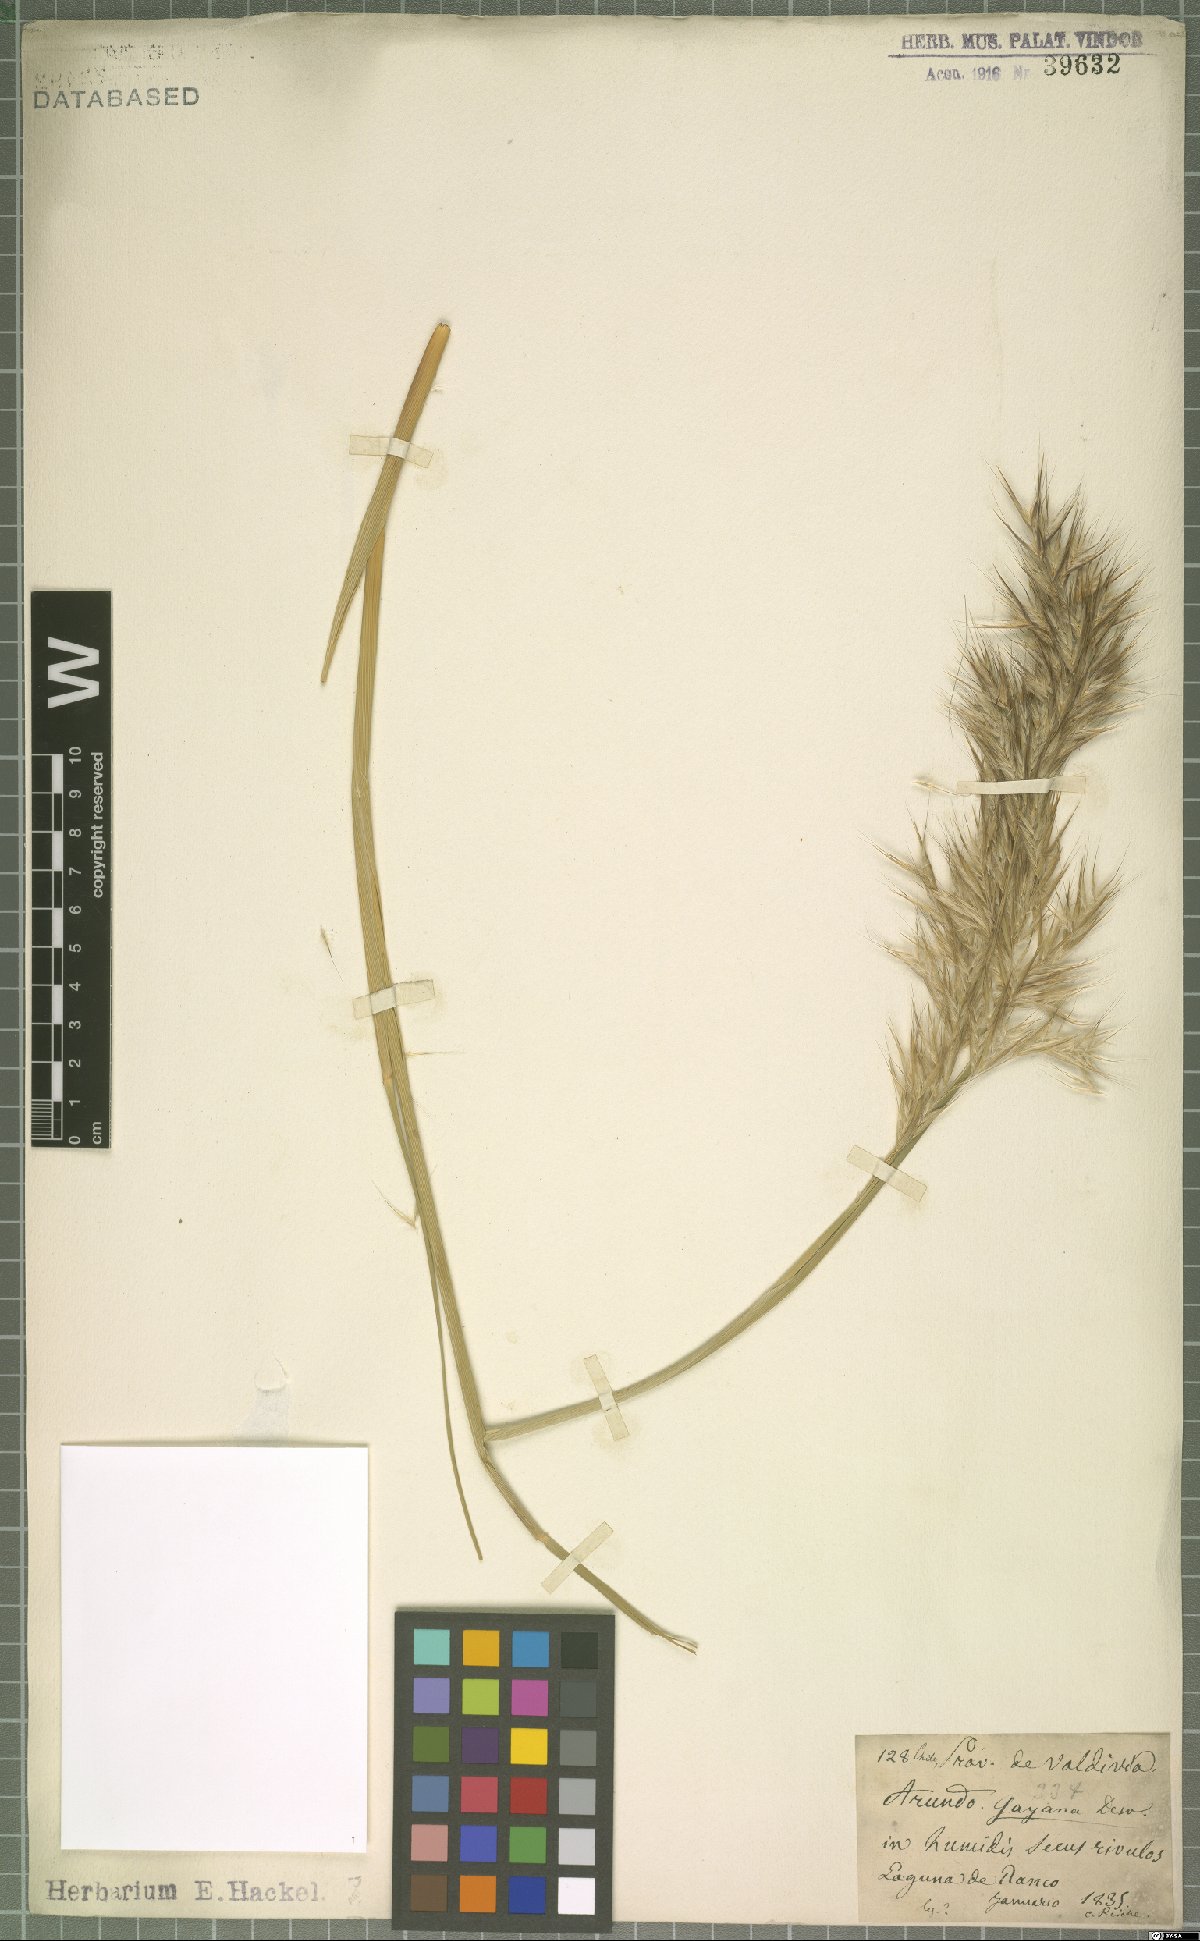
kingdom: Plantae
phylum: Tracheophyta
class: Liliopsida
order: Poales
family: Poaceae
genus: Arundo
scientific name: Arundo gayana
